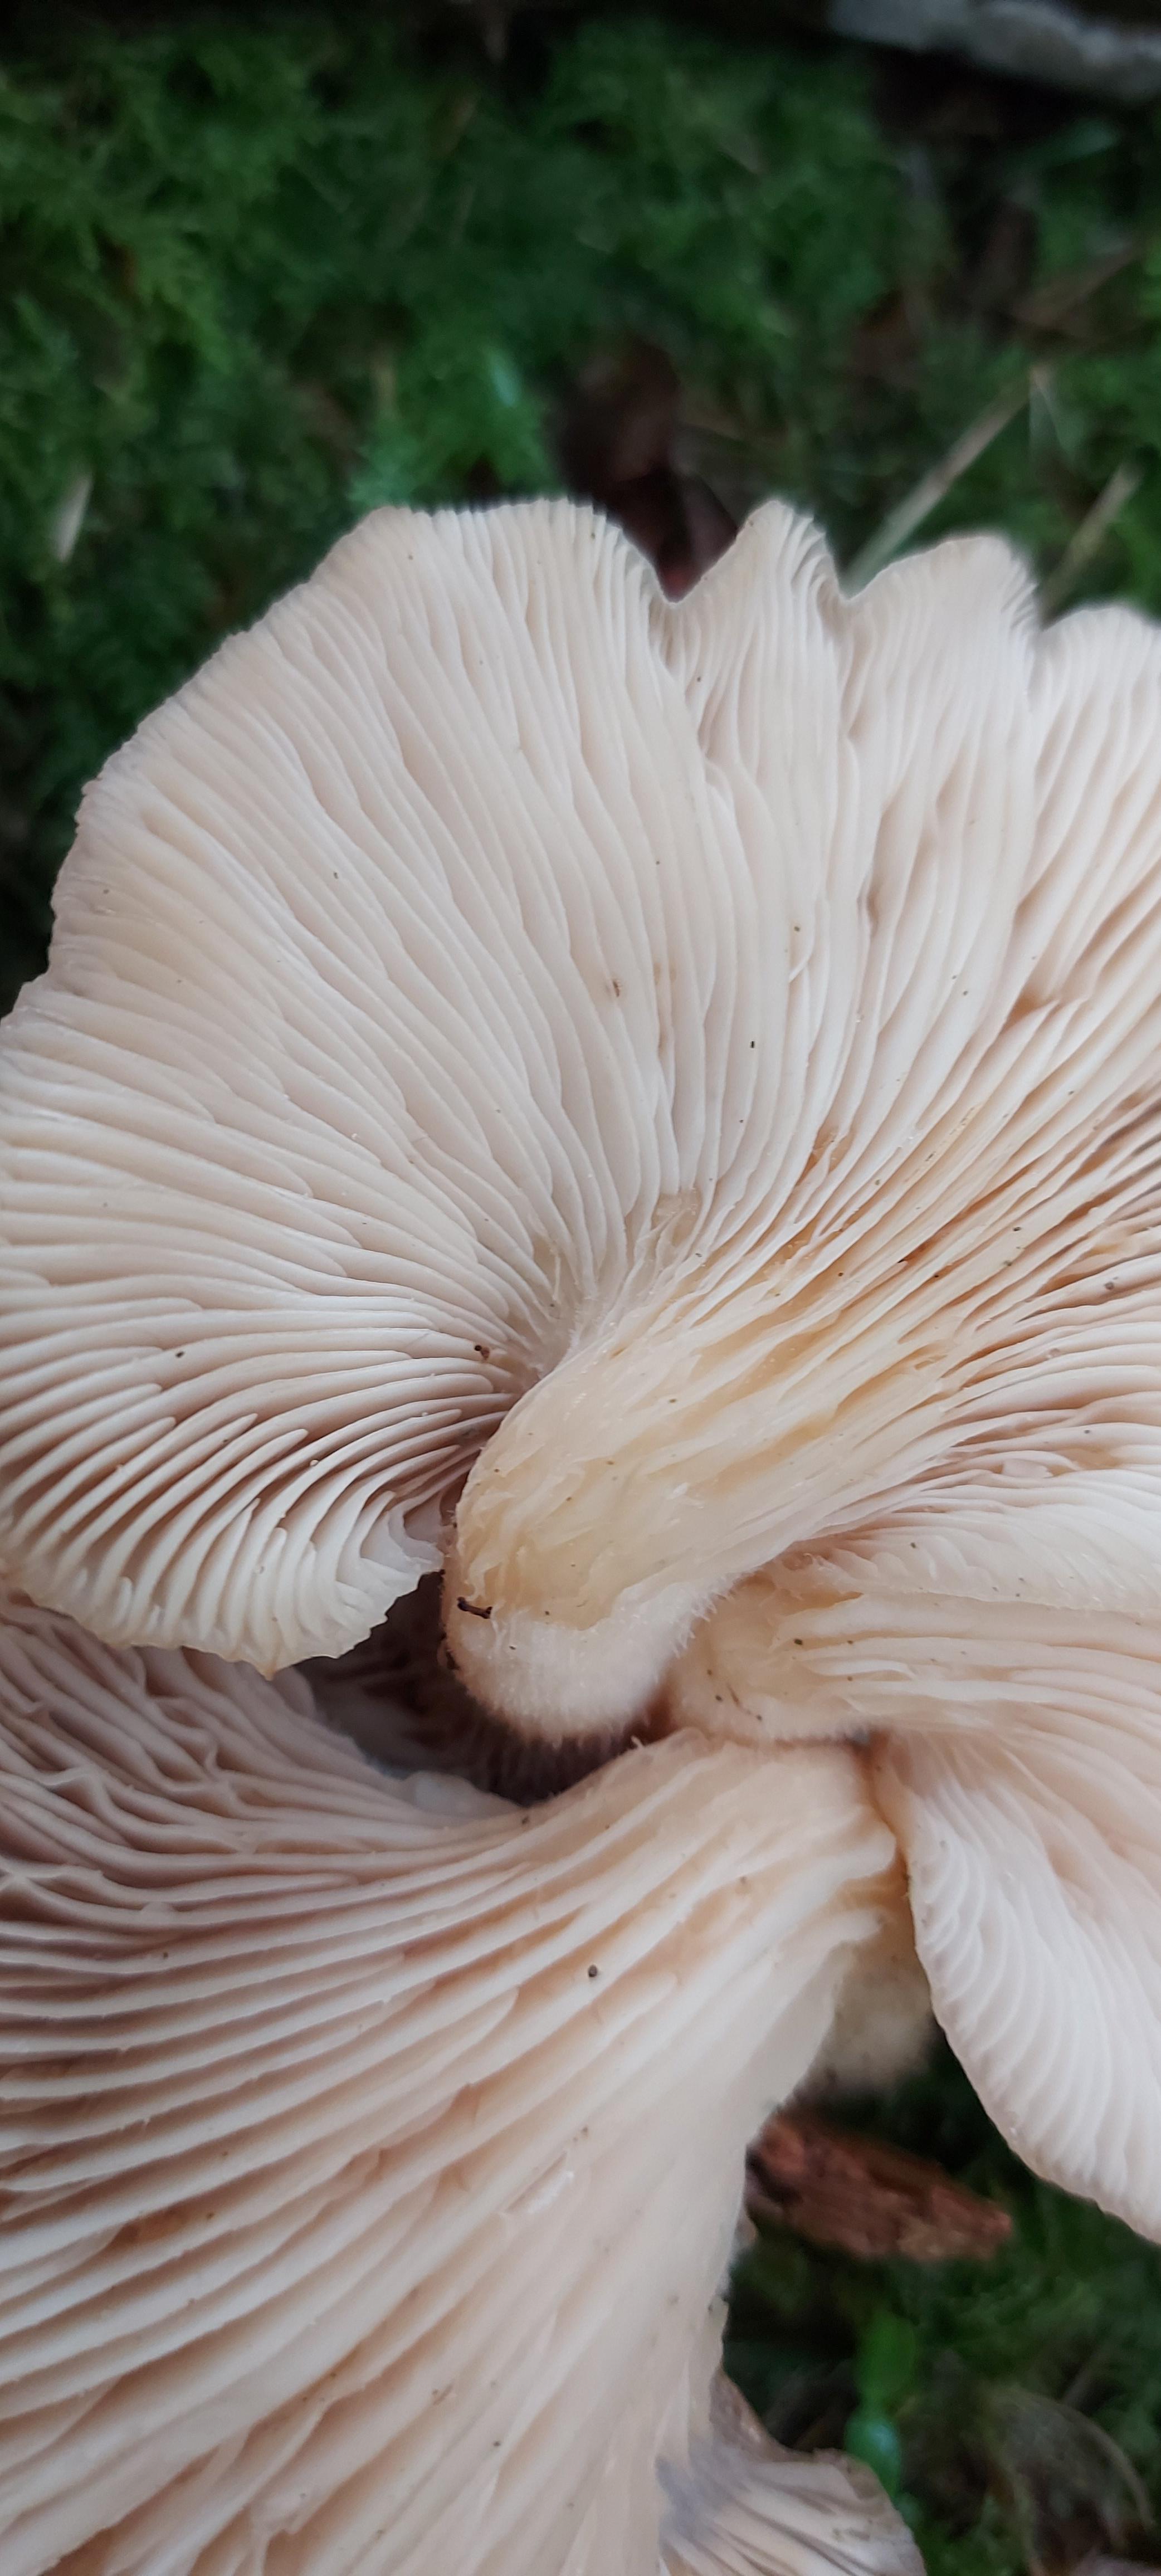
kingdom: Fungi
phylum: Basidiomycota
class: Agaricomycetes
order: Agaricales
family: Pleurotaceae
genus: Pleurotus
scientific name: Pleurotus ostreatus
